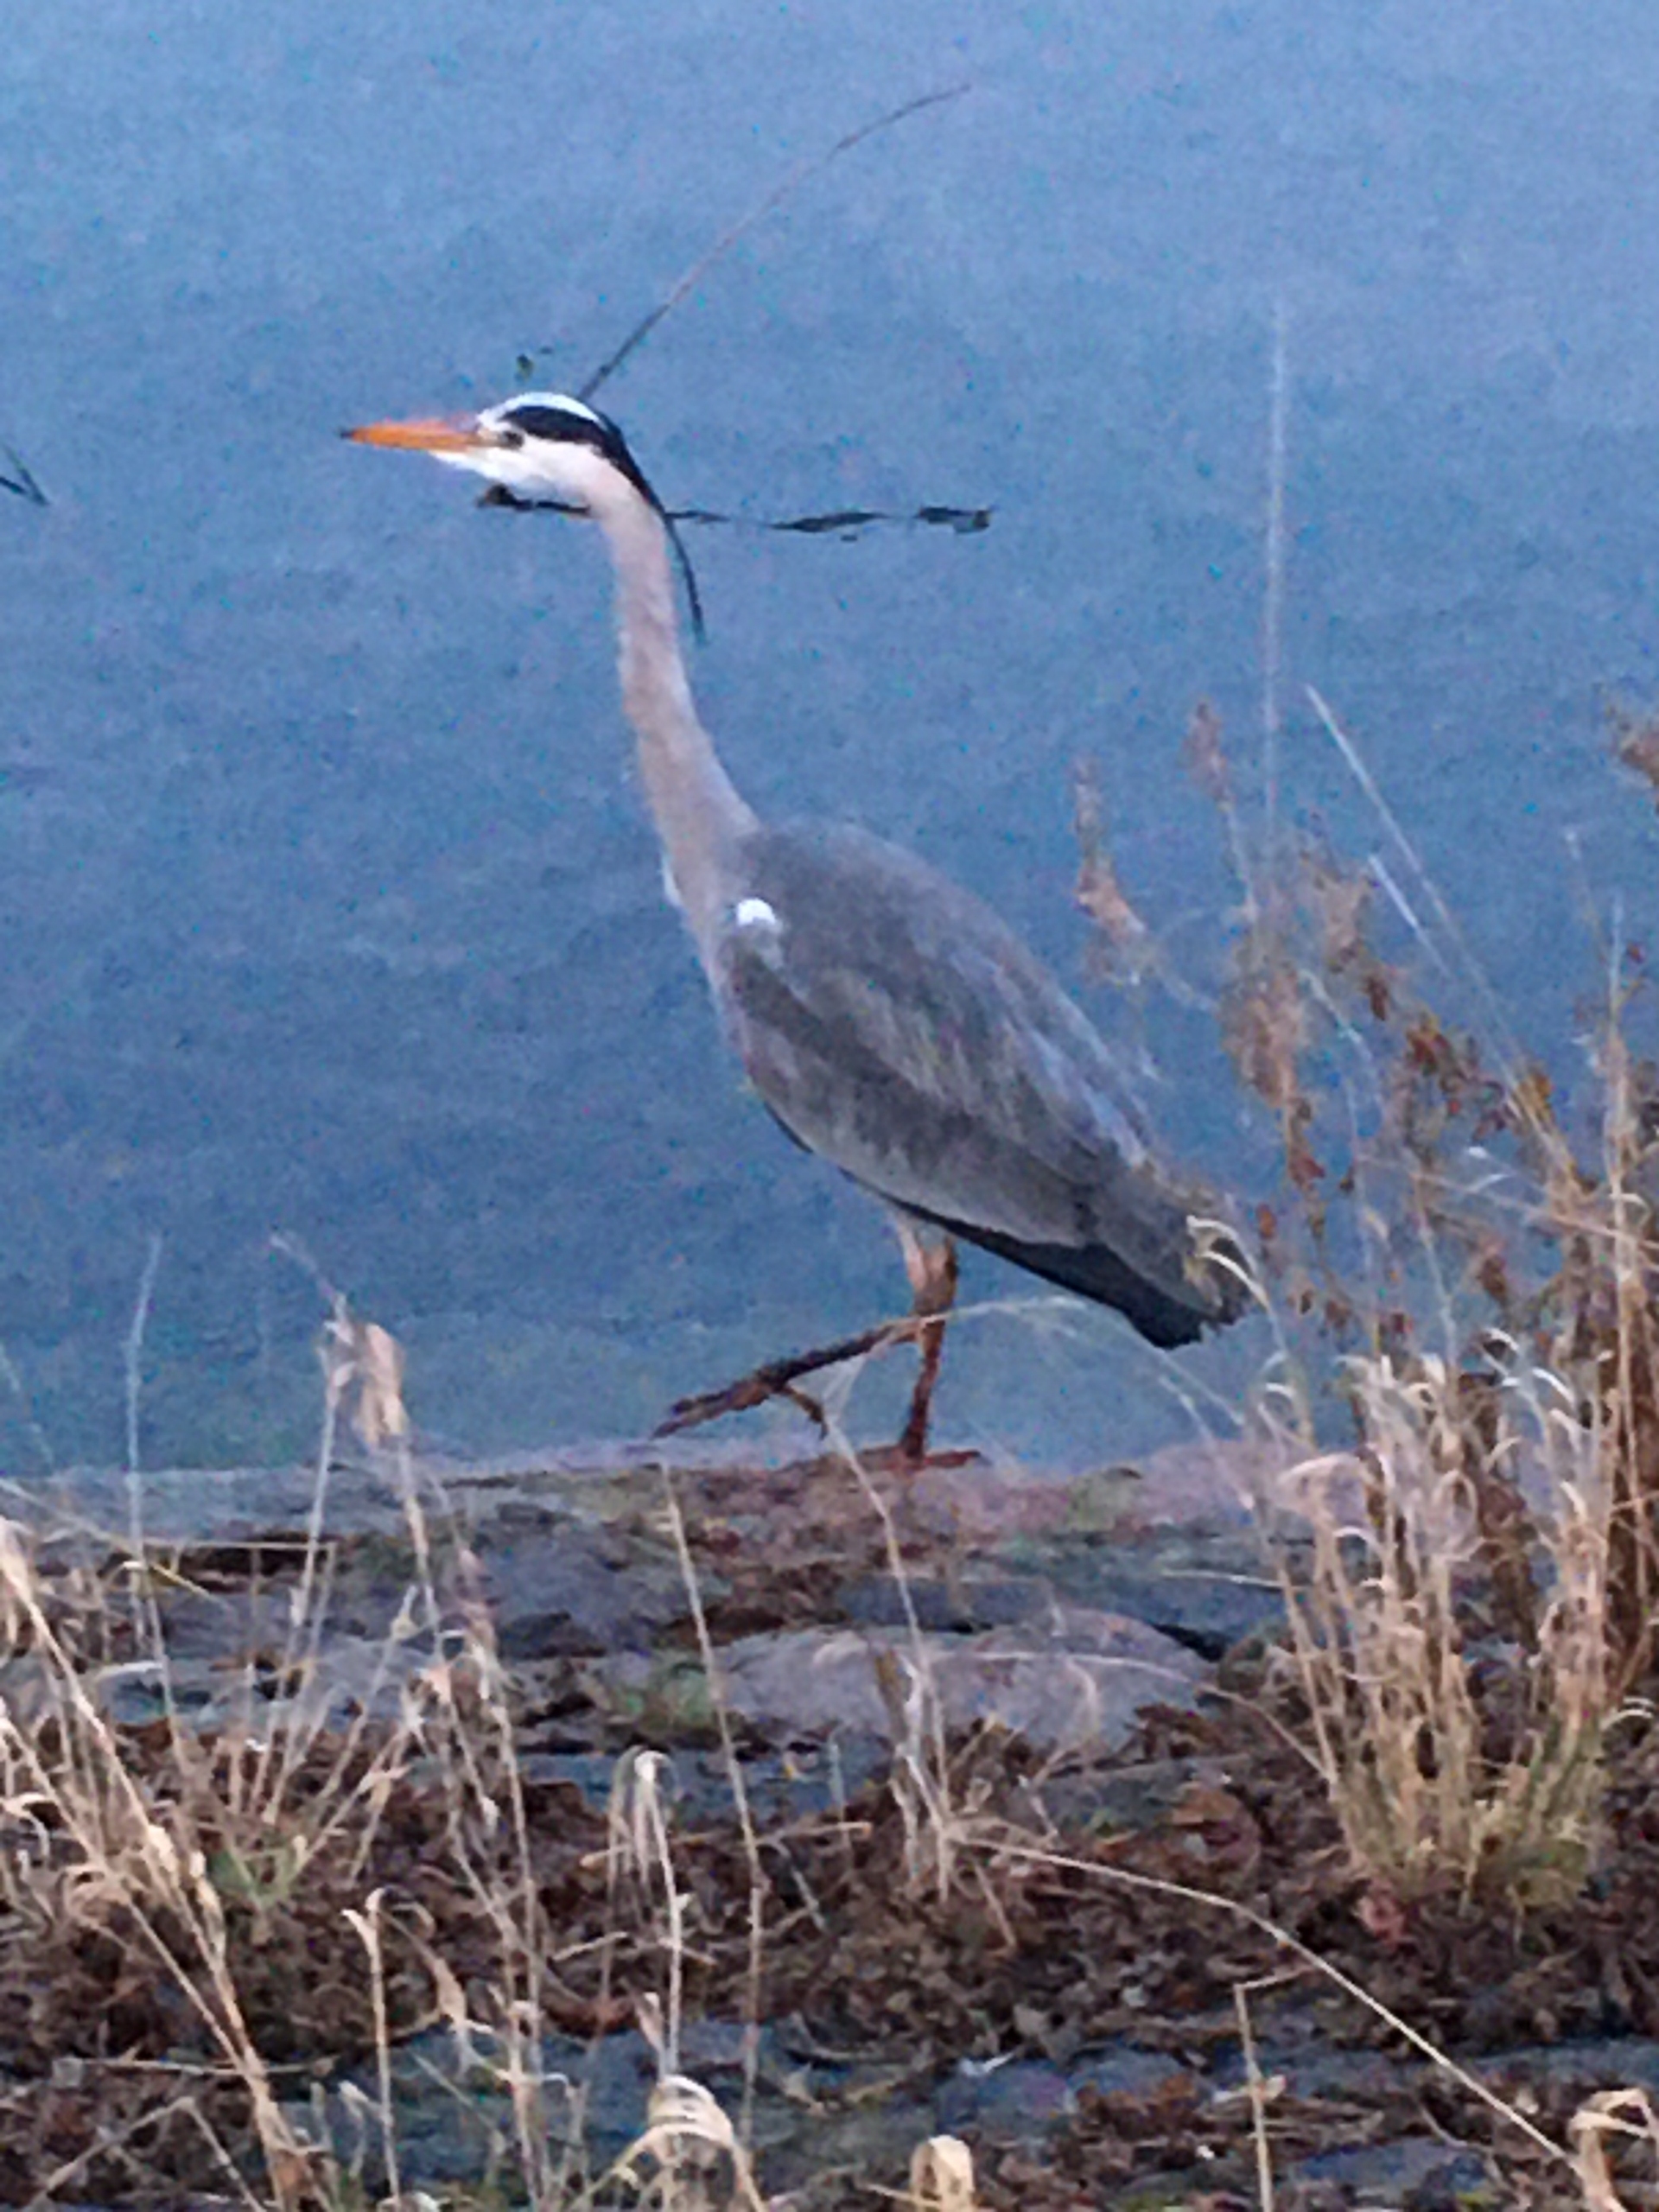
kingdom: Animalia
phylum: Chordata
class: Aves
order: Pelecaniformes
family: Ardeidae
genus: Ardea
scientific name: Ardea cinerea
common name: Fiskehejre
